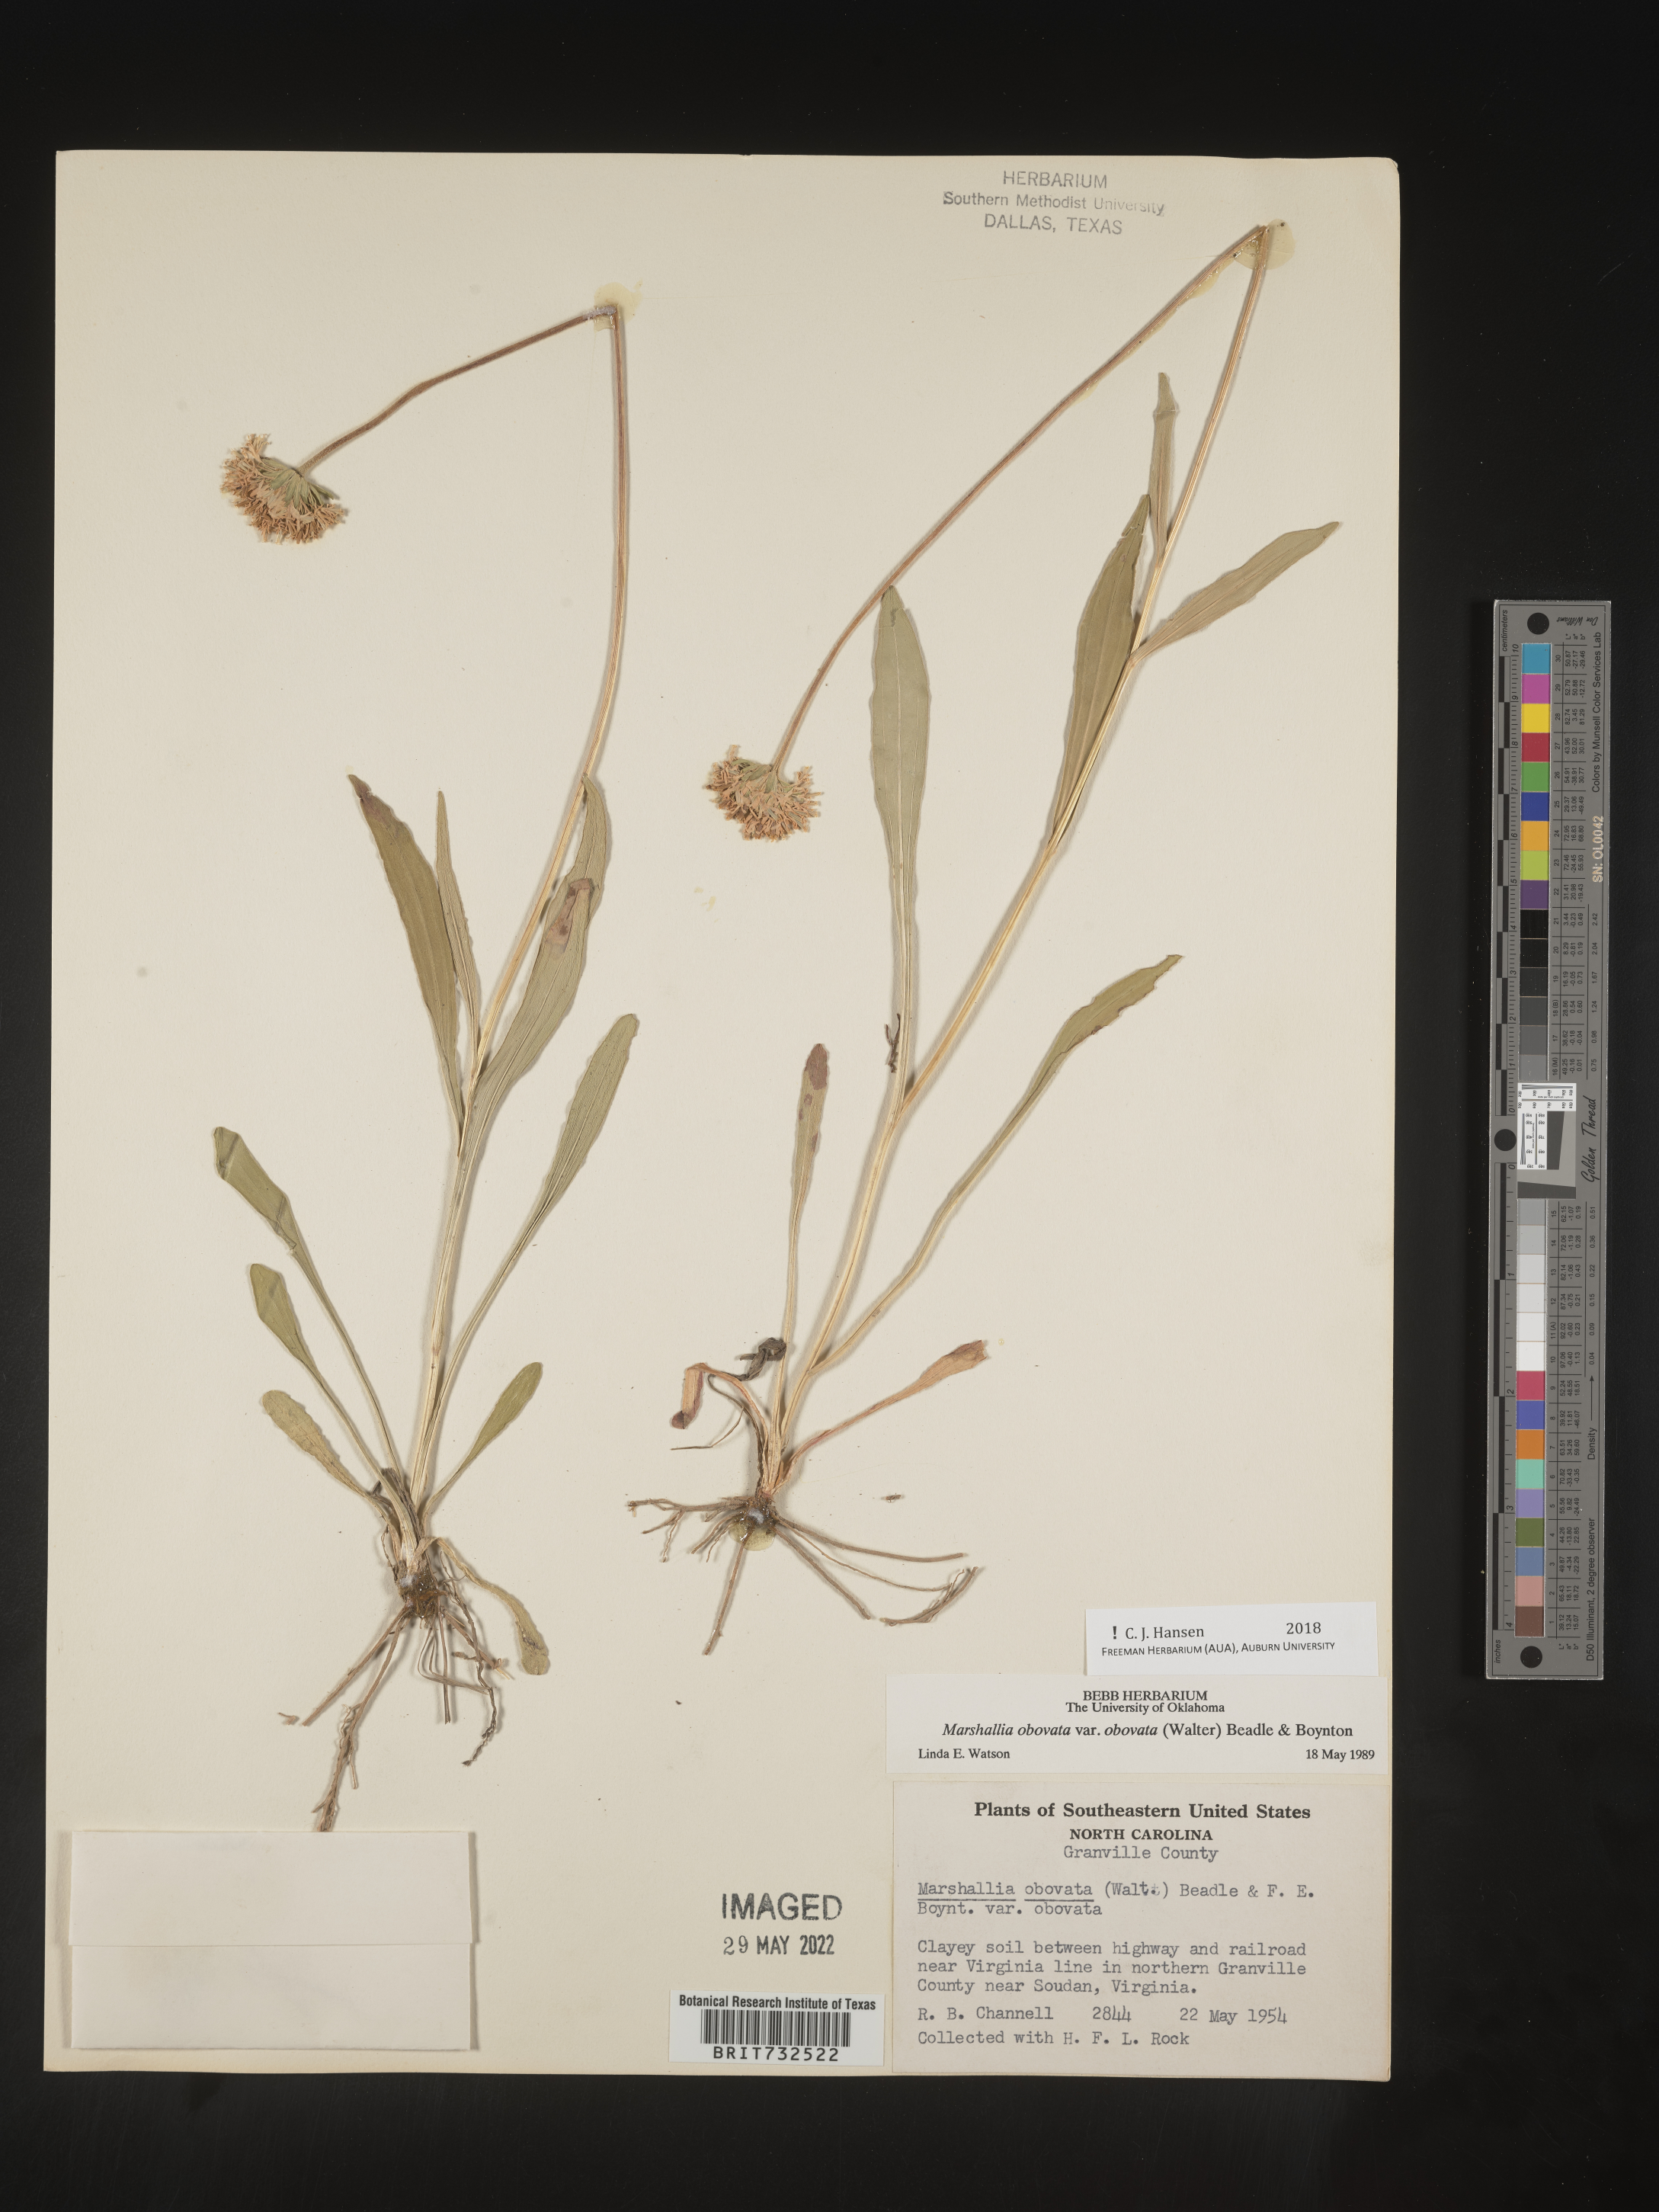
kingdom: Plantae
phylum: Tracheophyta
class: Magnoliopsida
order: Asterales
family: Asteraceae
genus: Marshallia
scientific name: Marshallia obovata
